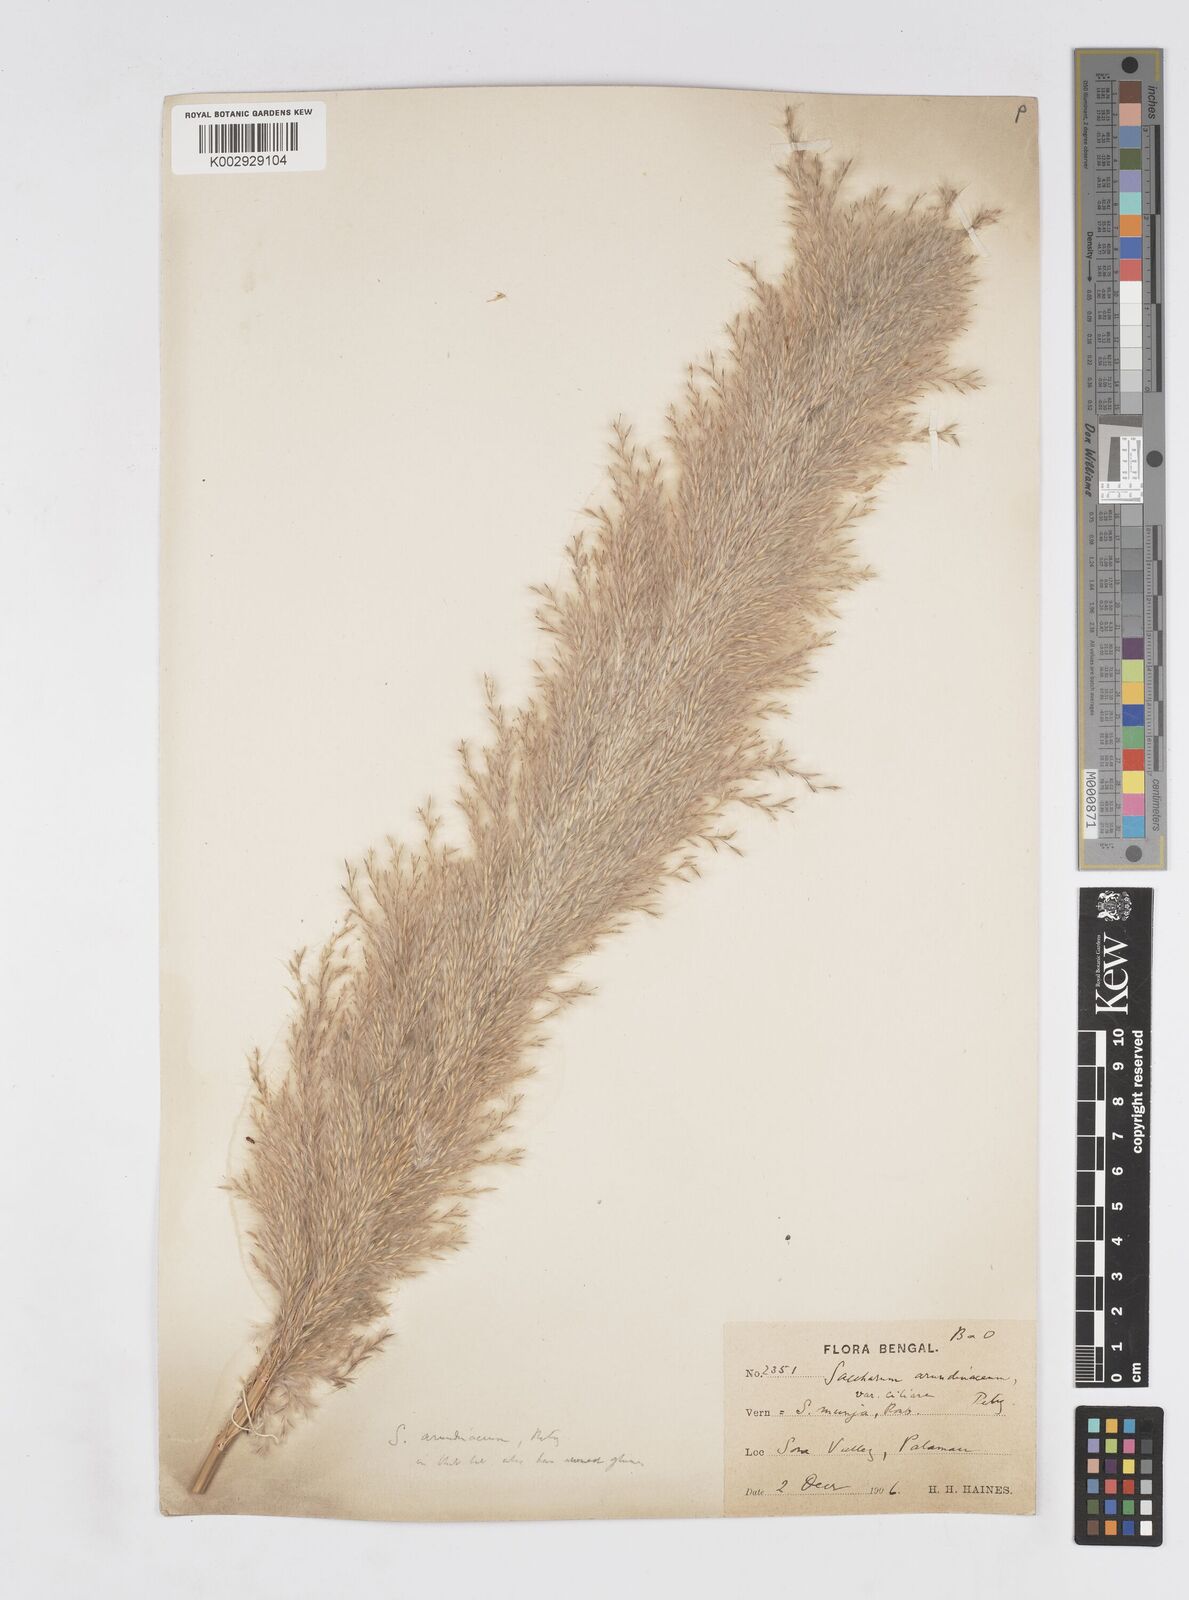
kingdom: Plantae
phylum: Tracheophyta
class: Liliopsida
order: Poales
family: Poaceae
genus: Saccharum
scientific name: Saccharum
